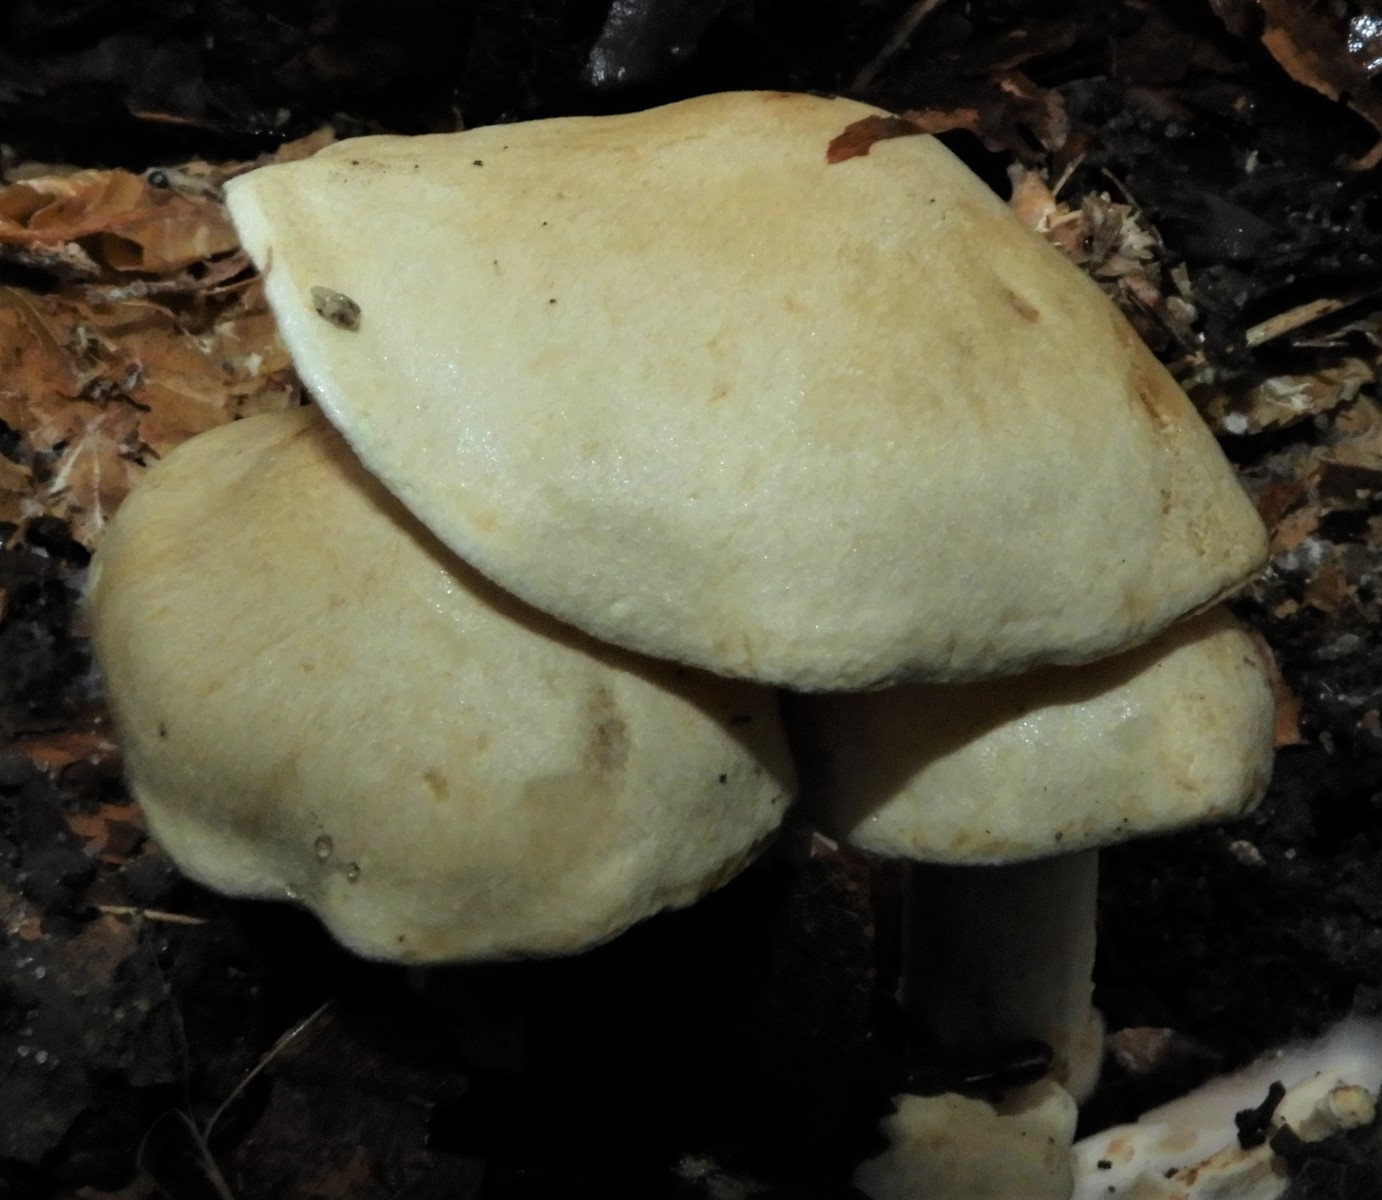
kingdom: Fungi
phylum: Basidiomycota
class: Agaricomycetes
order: Agaricales
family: Tricholomataceae
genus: Tricholoma
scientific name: Tricholoma lascivum
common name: stinkende ridderhat
